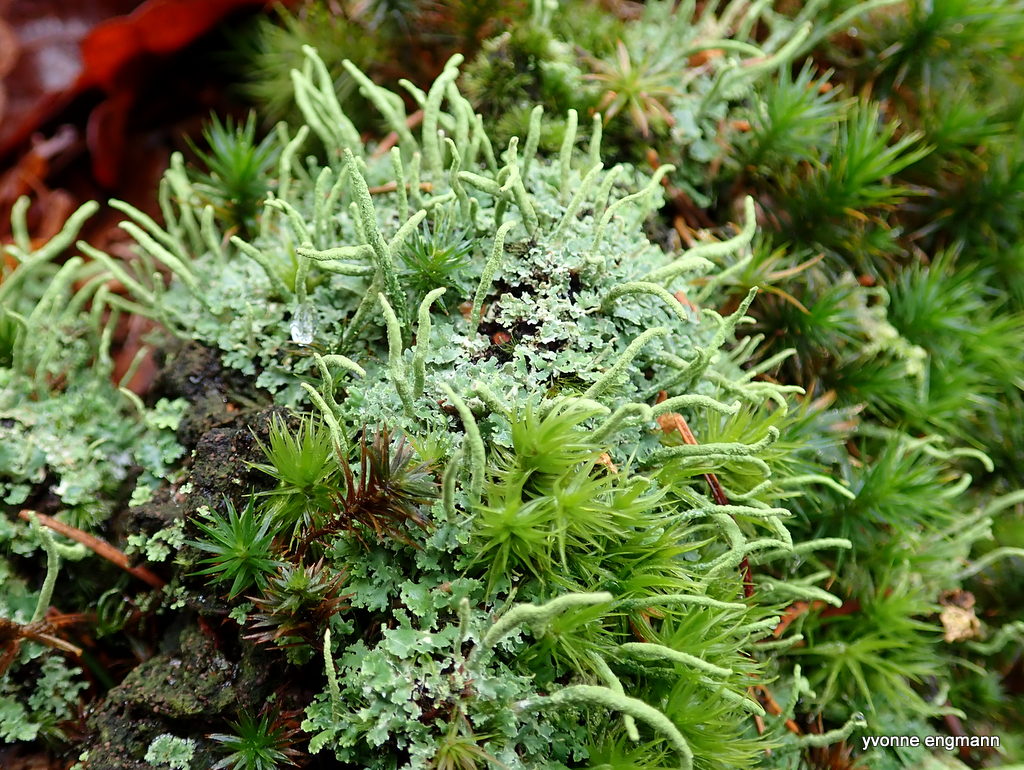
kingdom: Fungi
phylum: Ascomycota
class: Lecanoromycetes
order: Lecanorales
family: Cladoniaceae
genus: Cladonia
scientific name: Cladonia coniocraea
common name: træfods-bægerlav
